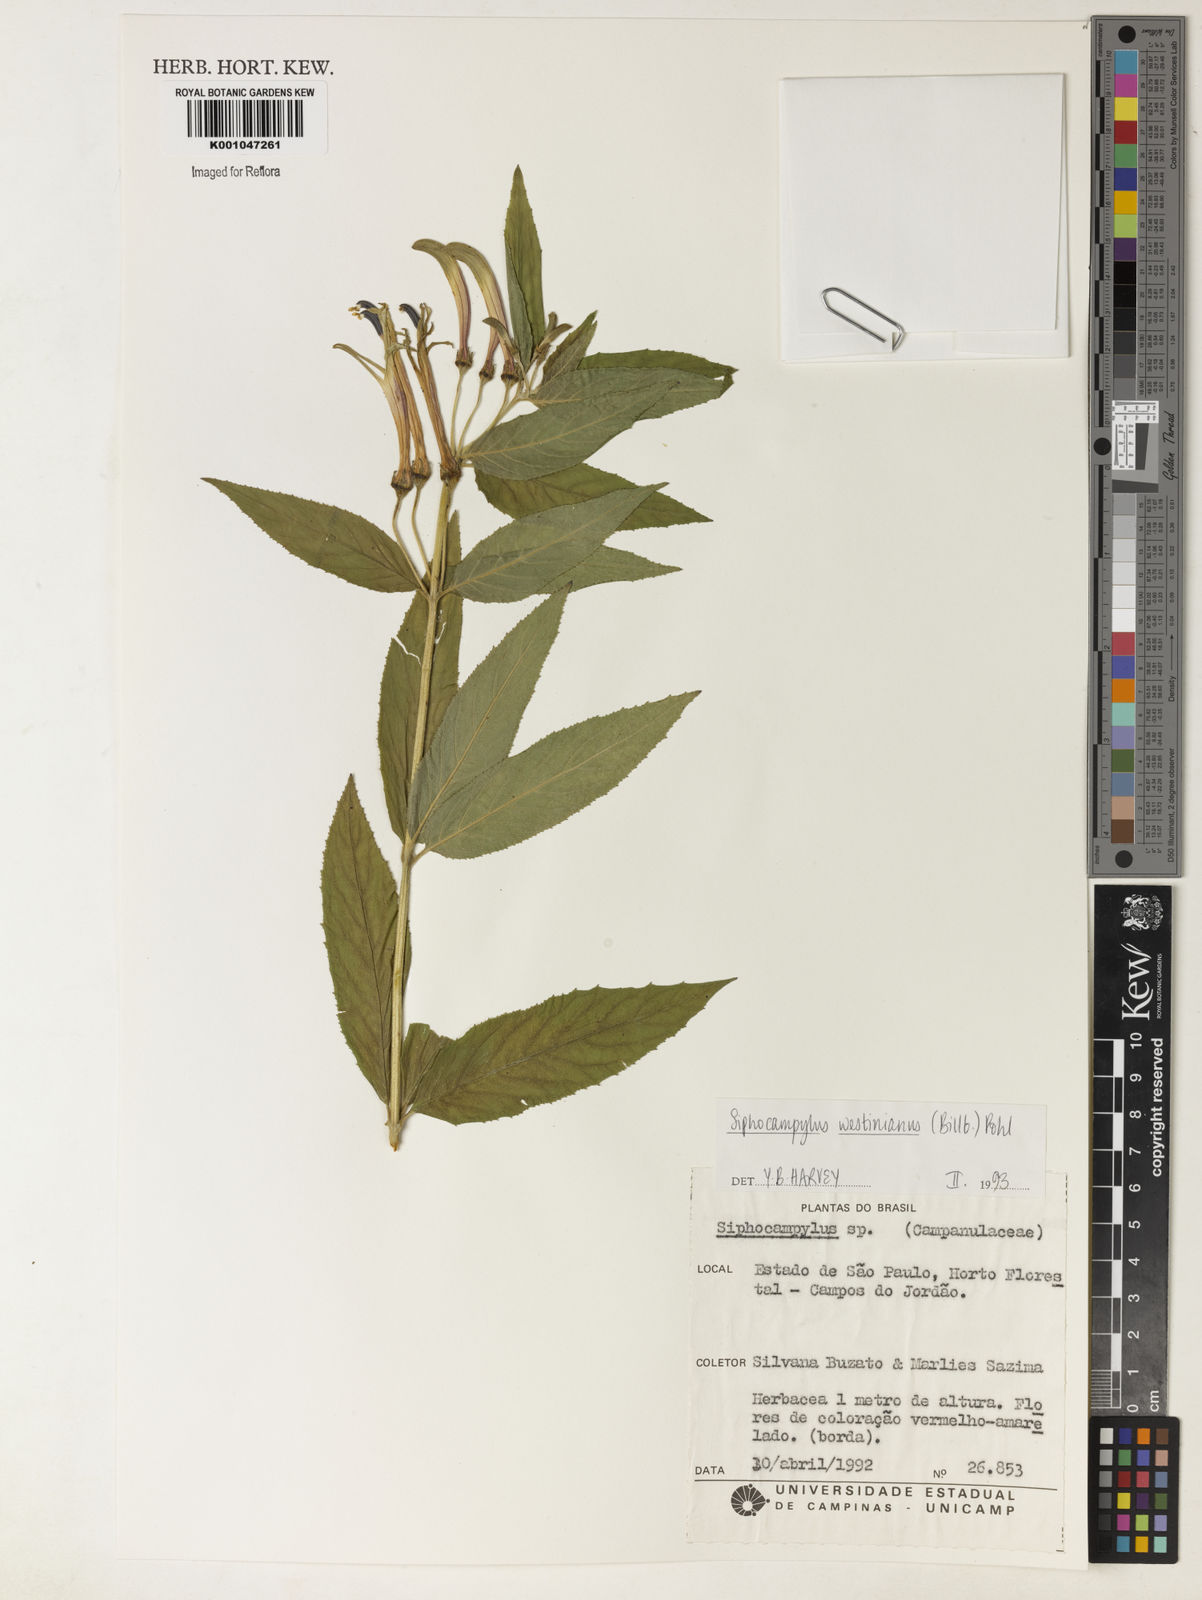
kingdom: Plantae
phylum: Tracheophyta
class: Magnoliopsida
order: Asterales
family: Campanulaceae
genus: Siphocampylus
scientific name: Siphocampylus westinianus
